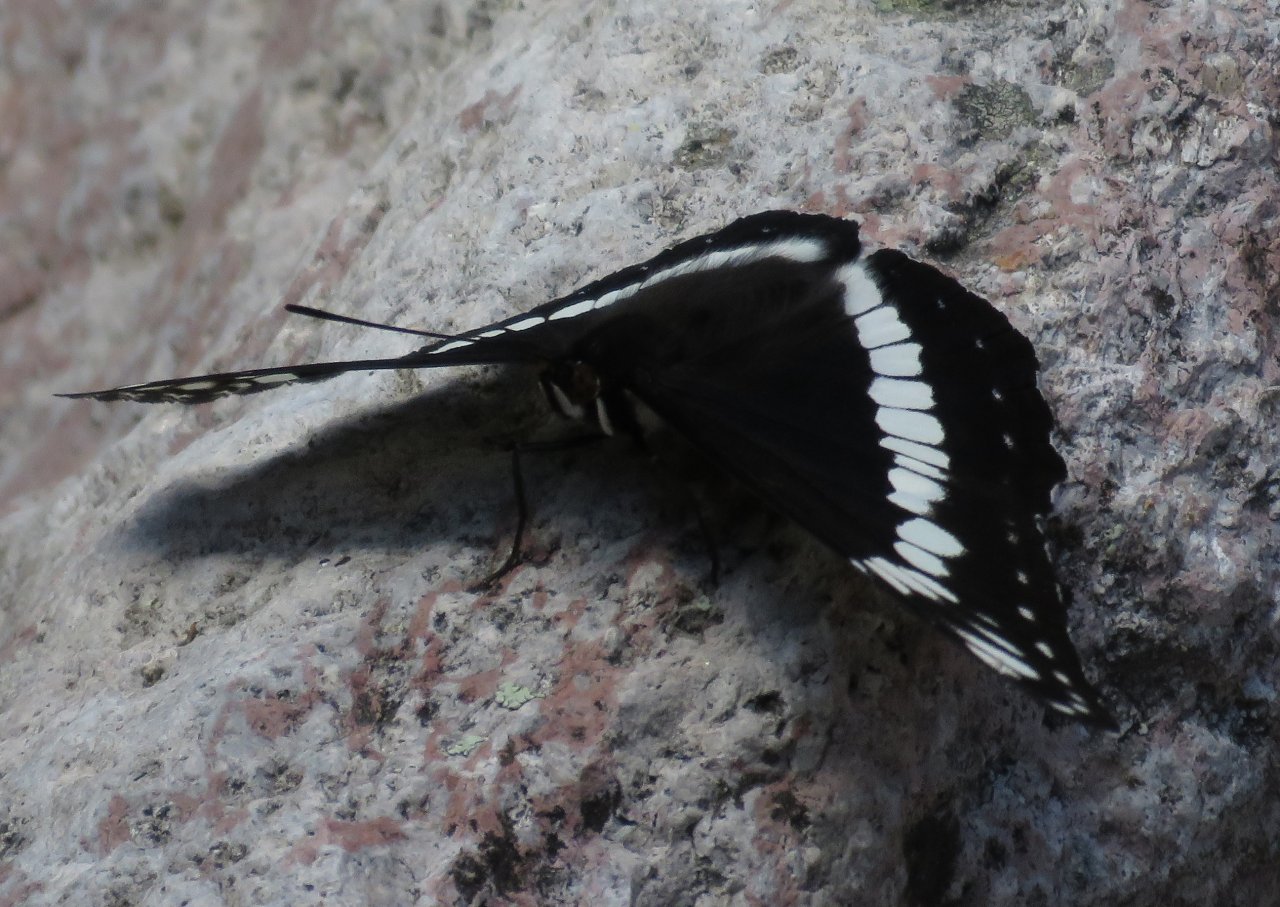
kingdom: Animalia
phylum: Arthropoda
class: Insecta
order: Lepidoptera
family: Nymphalidae
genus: Limenitis
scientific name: Limenitis weidemeyerii
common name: Weidemeyer's Admiral
